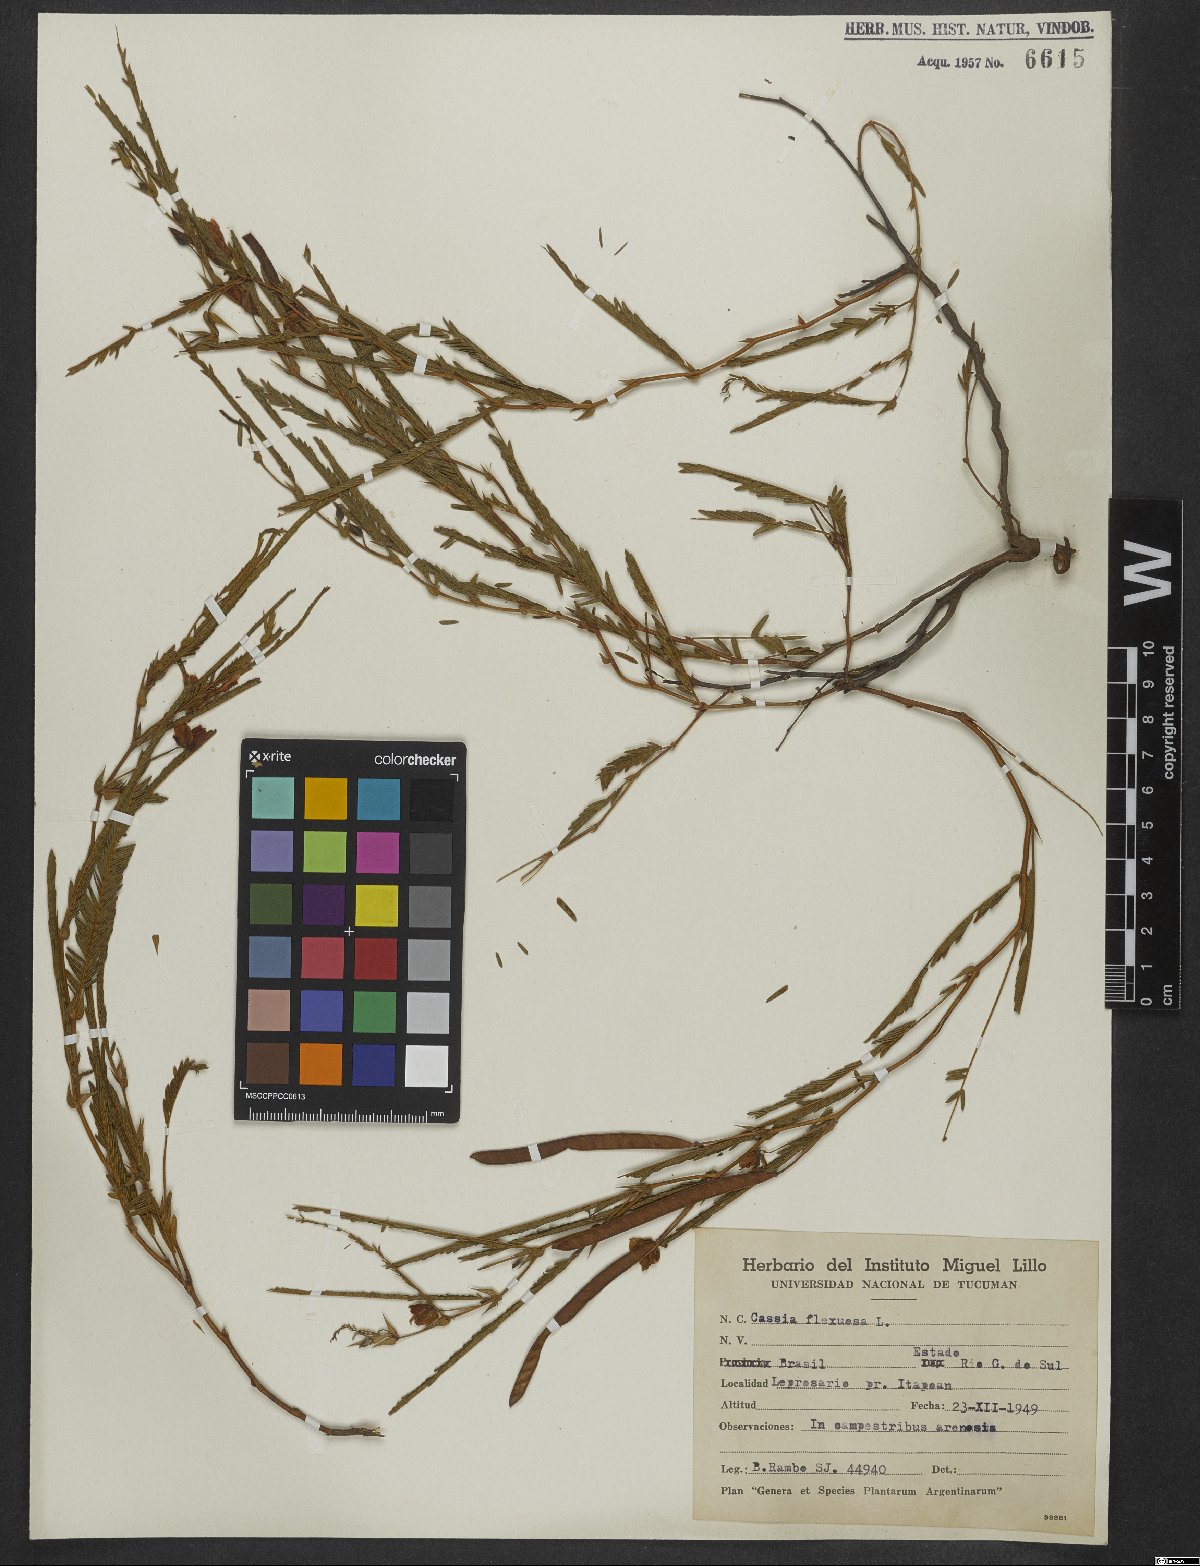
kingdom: Plantae
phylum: Tracheophyta
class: Magnoliopsida
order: Fabales
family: Fabaceae
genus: Chamaecrista
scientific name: Chamaecrista flexuosa
